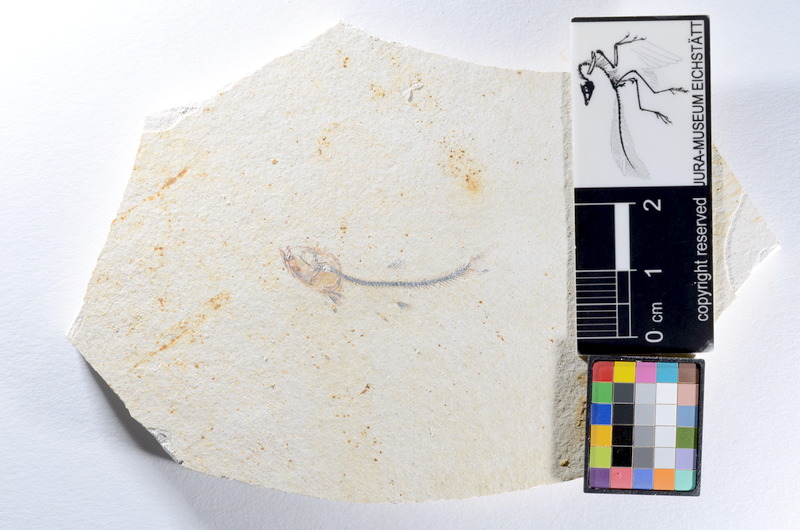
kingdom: Animalia
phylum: Chordata
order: Salmoniformes
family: Orthogonikleithridae
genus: Orthogonikleithrus
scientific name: Orthogonikleithrus hoelli
